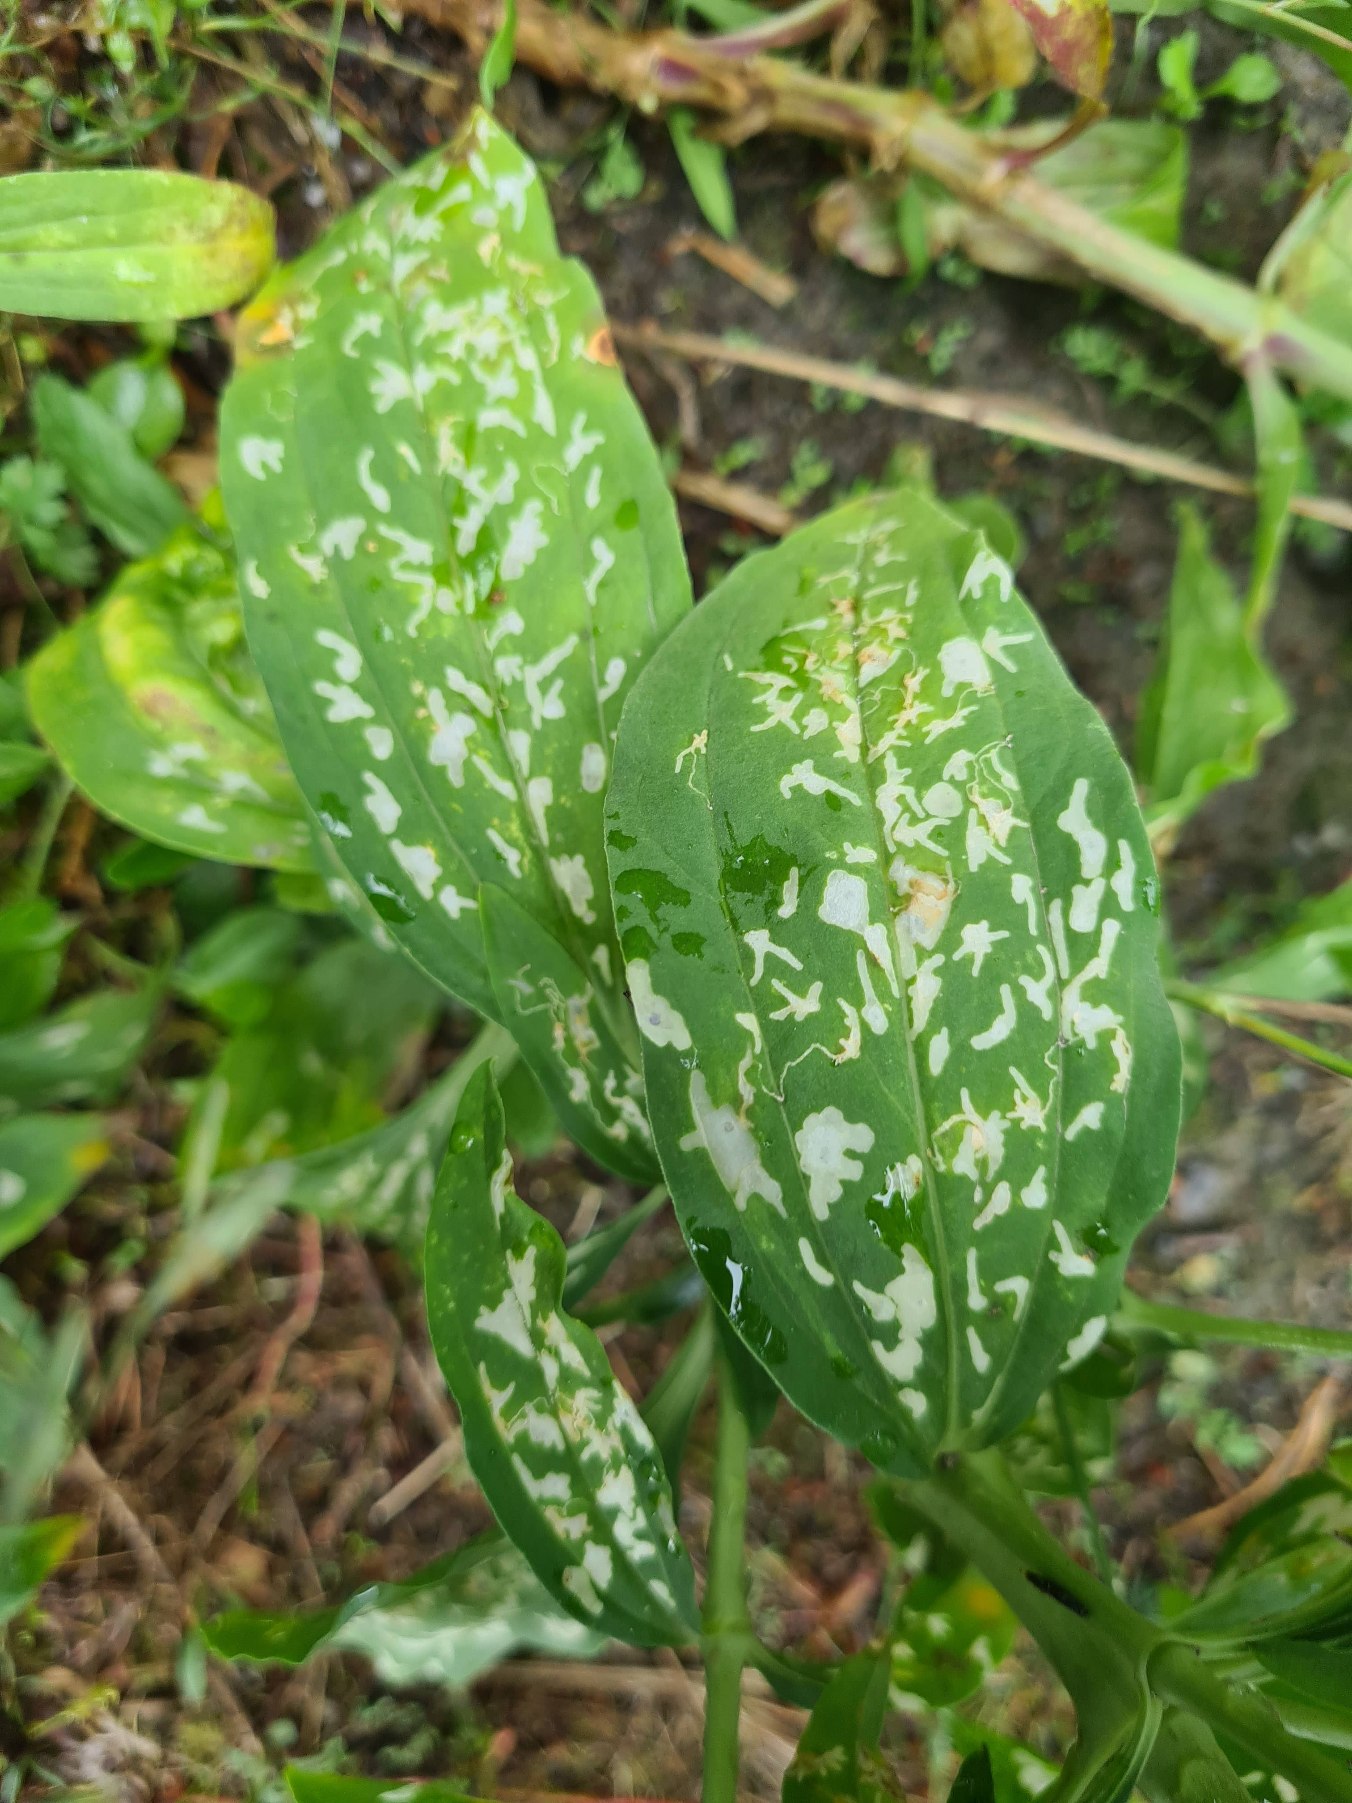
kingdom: Animalia
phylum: Arthropoda
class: Insecta
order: Lepidoptera
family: Coleophoridae
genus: Coleophora
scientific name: Coleophora saponariella
